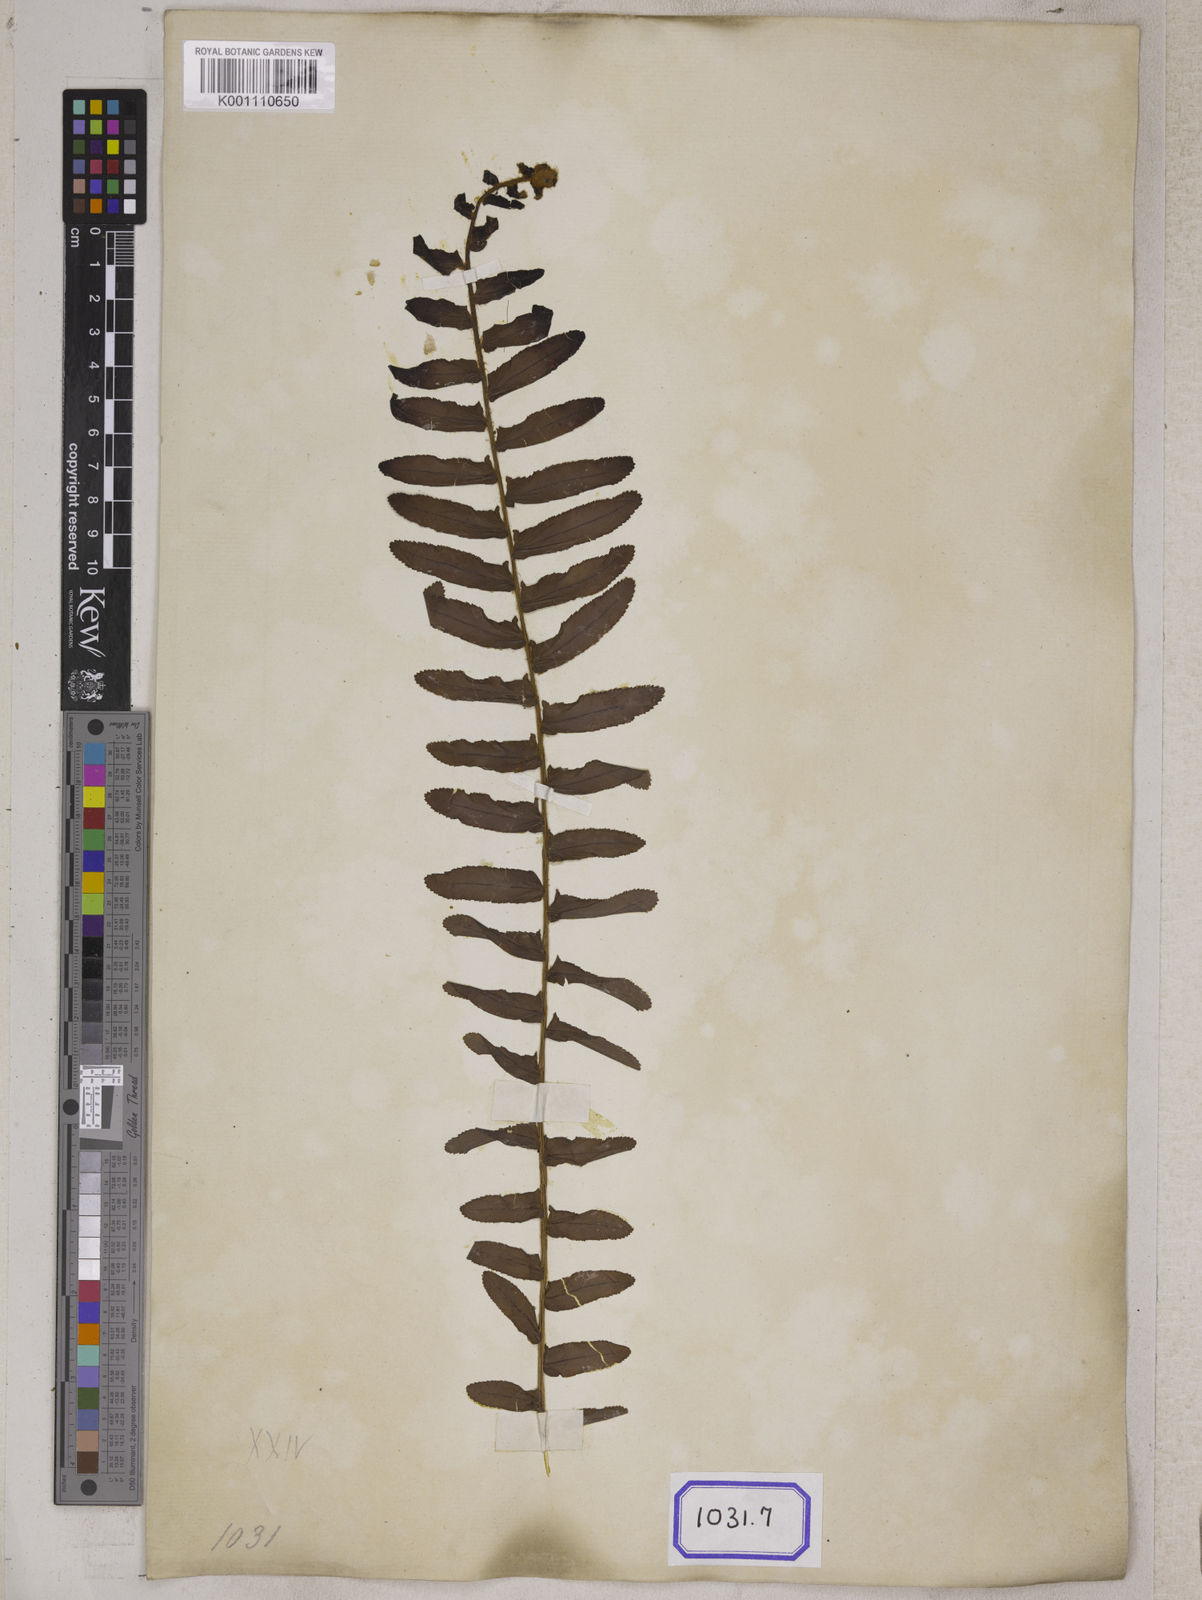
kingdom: Plantae
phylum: Tracheophyta
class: Polypodiopsida
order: Polypodiales
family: Nephrolepidaceae
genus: Nephrolepis
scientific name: Nephrolepis exaltata
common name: Sword fern
